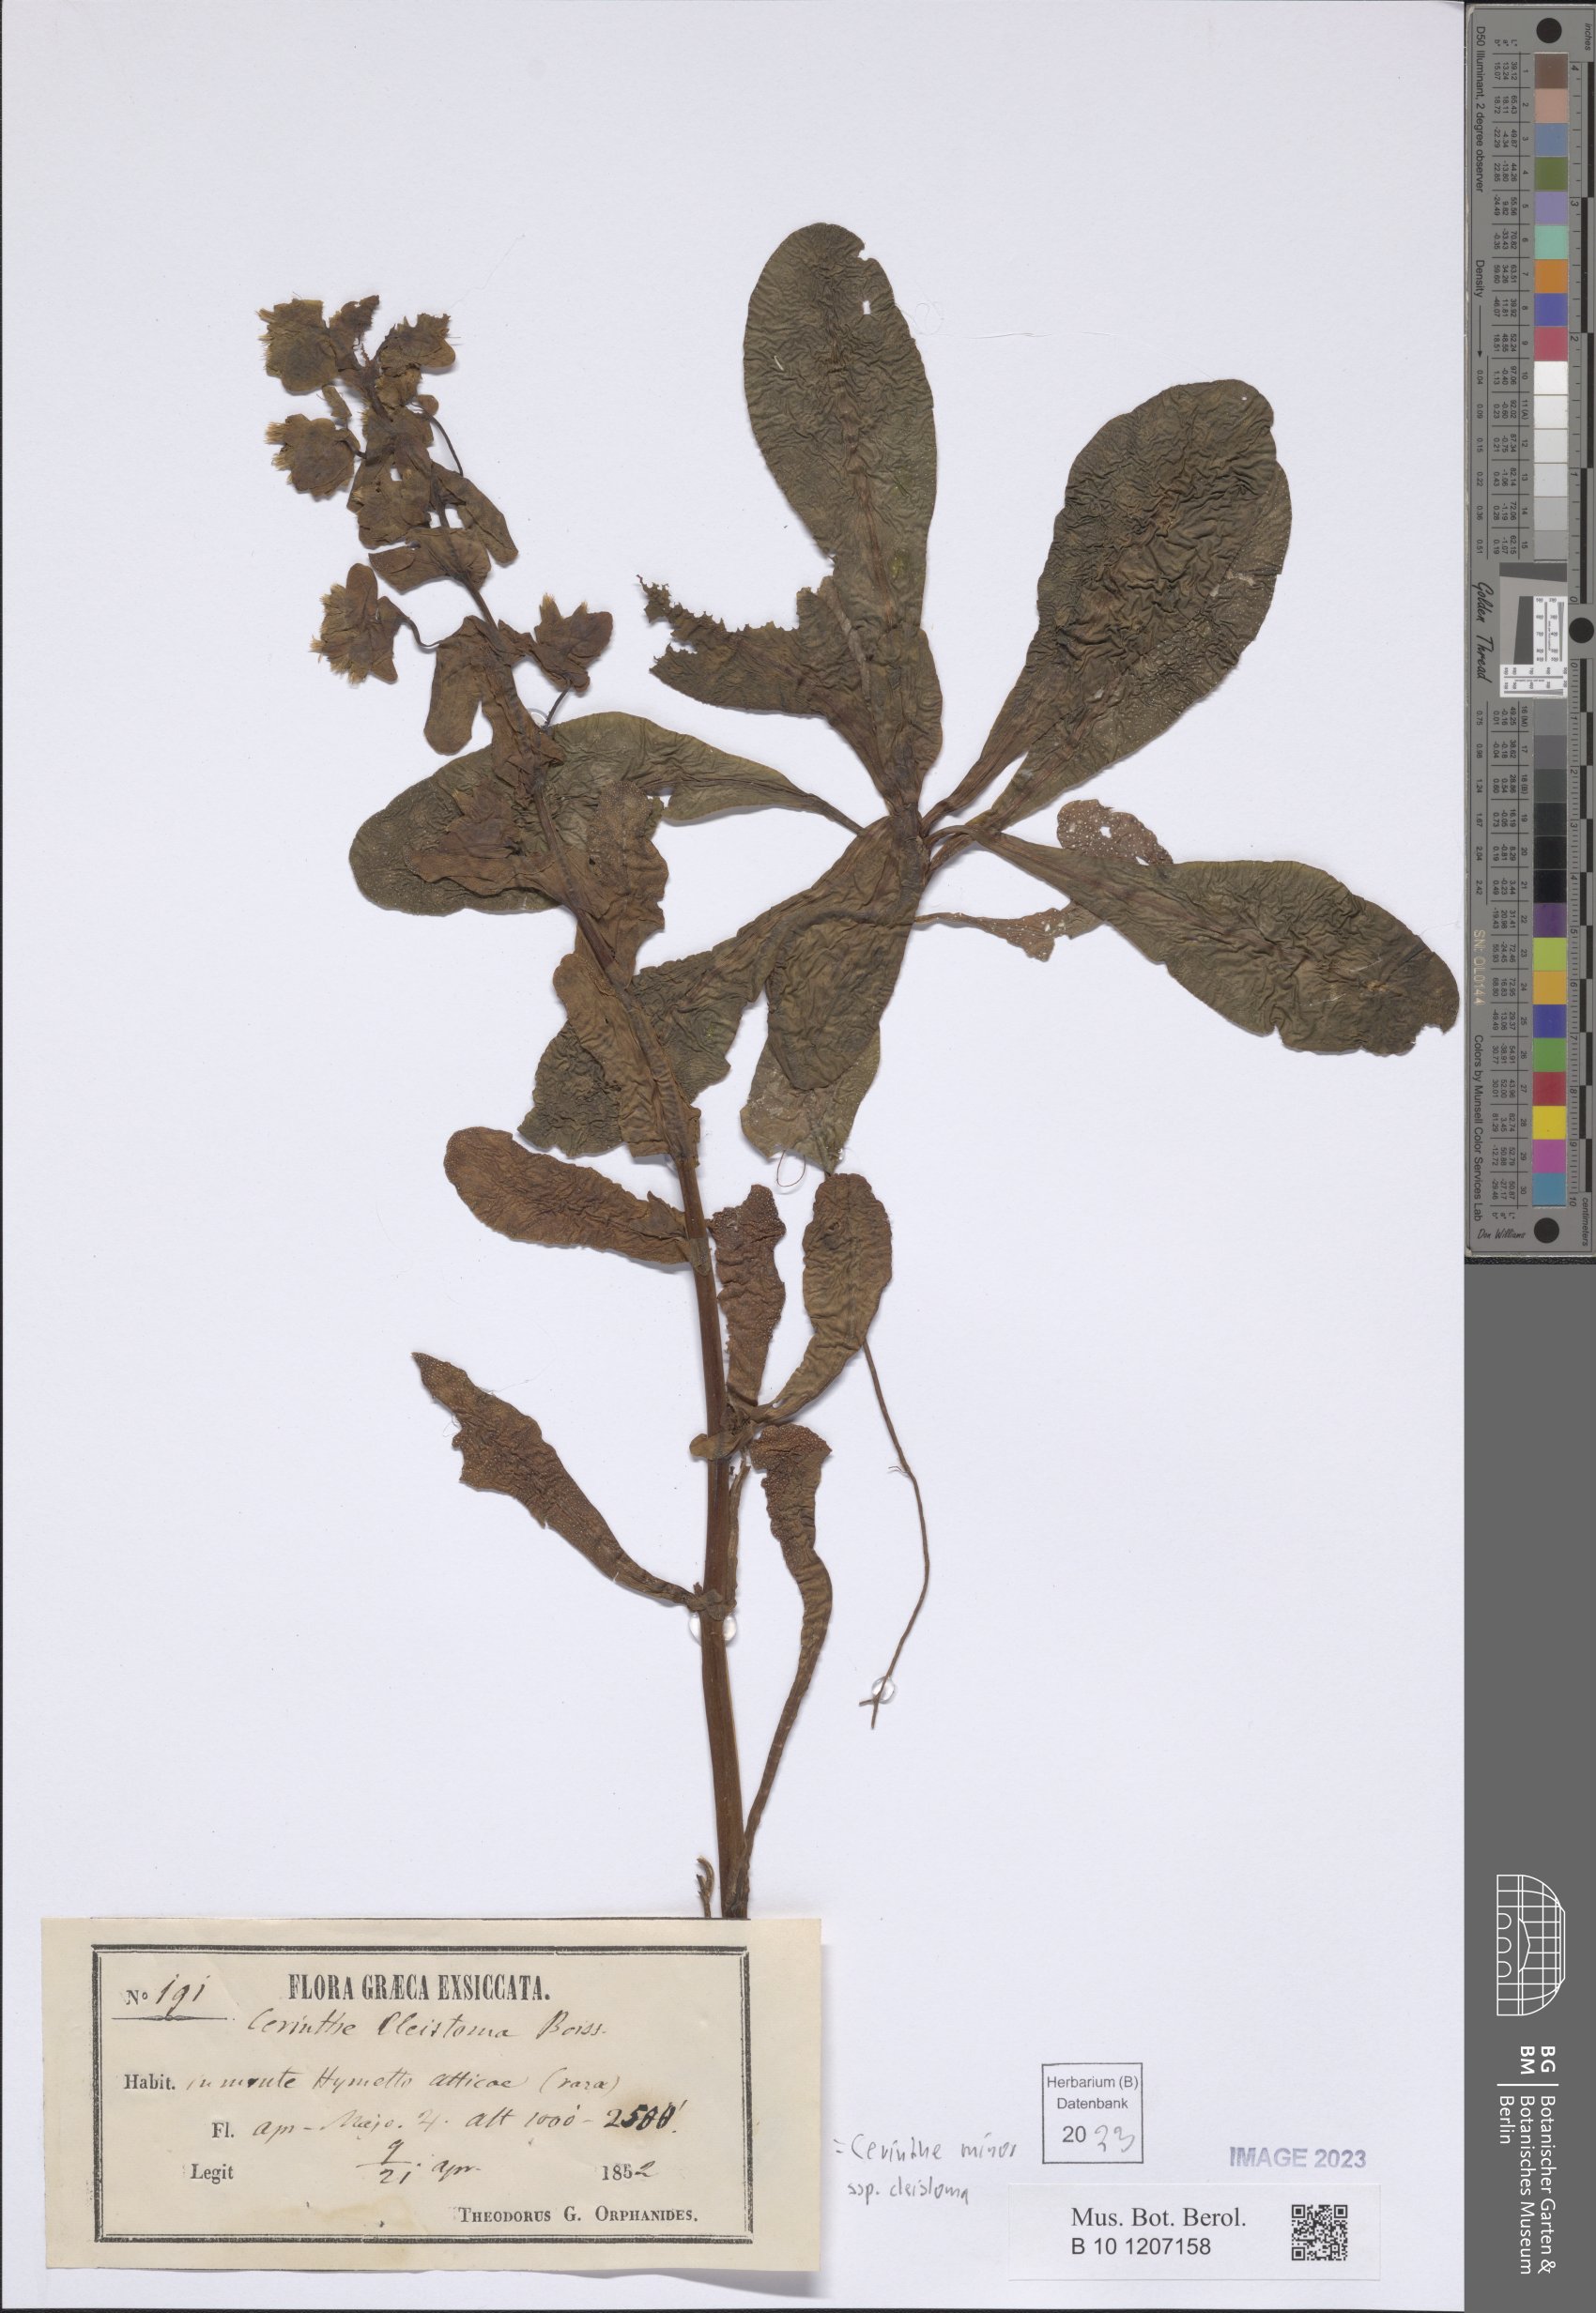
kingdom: Plantae
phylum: Tracheophyta
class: Magnoliopsida
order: Boraginales
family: Boraginaceae
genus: Cerinthe
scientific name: Cerinthe minor
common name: Lesser honeywort
